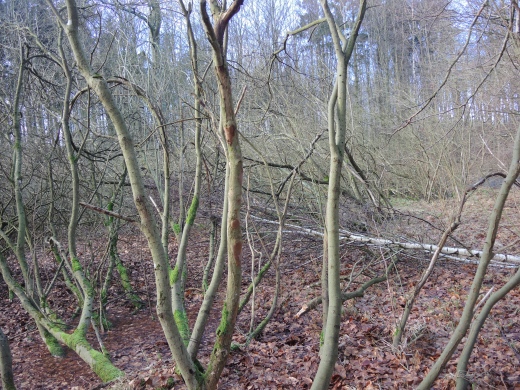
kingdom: Fungi
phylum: Basidiomycota
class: Agaricomycetes
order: Hymenochaetales
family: Hymenochaetaceae
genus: Fomitiporia
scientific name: Fomitiporia punctata
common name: pude-ildporesvamp
